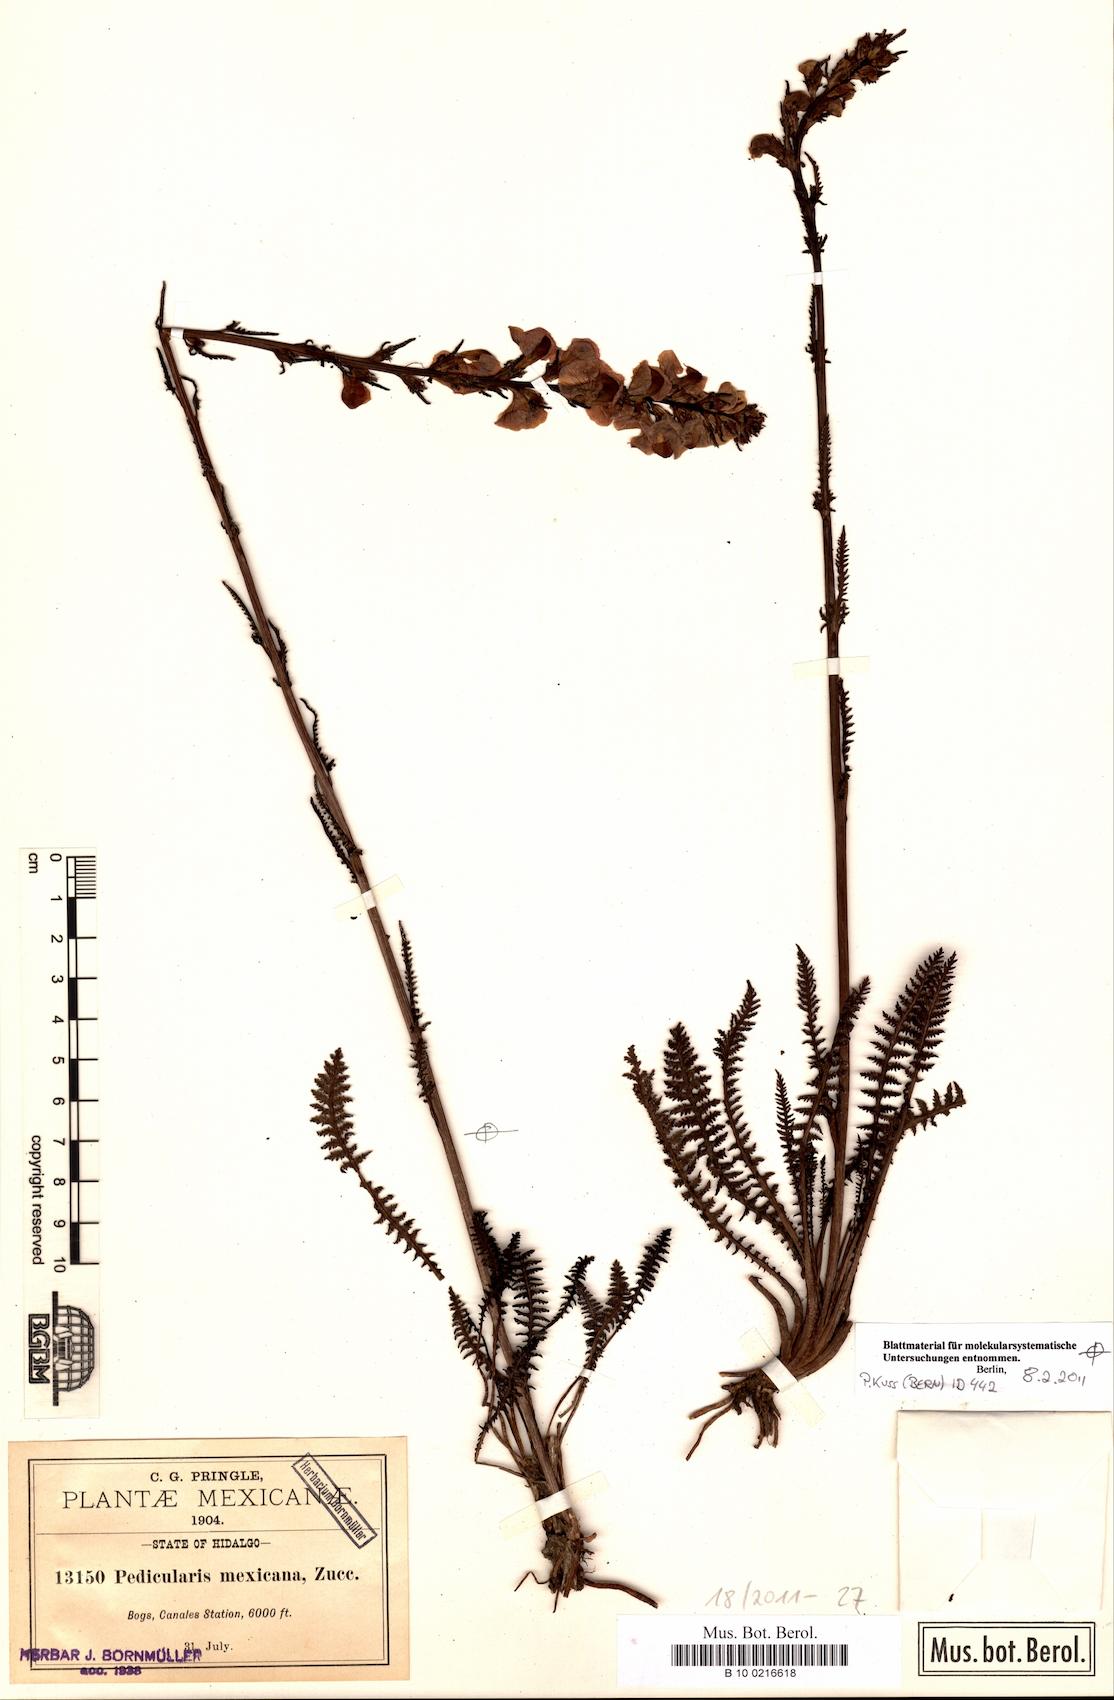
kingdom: Plantae
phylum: Tracheophyta
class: Magnoliopsida
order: Lamiales
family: Orobanchaceae
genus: Pedicularis
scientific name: Pedicularis orizabae
